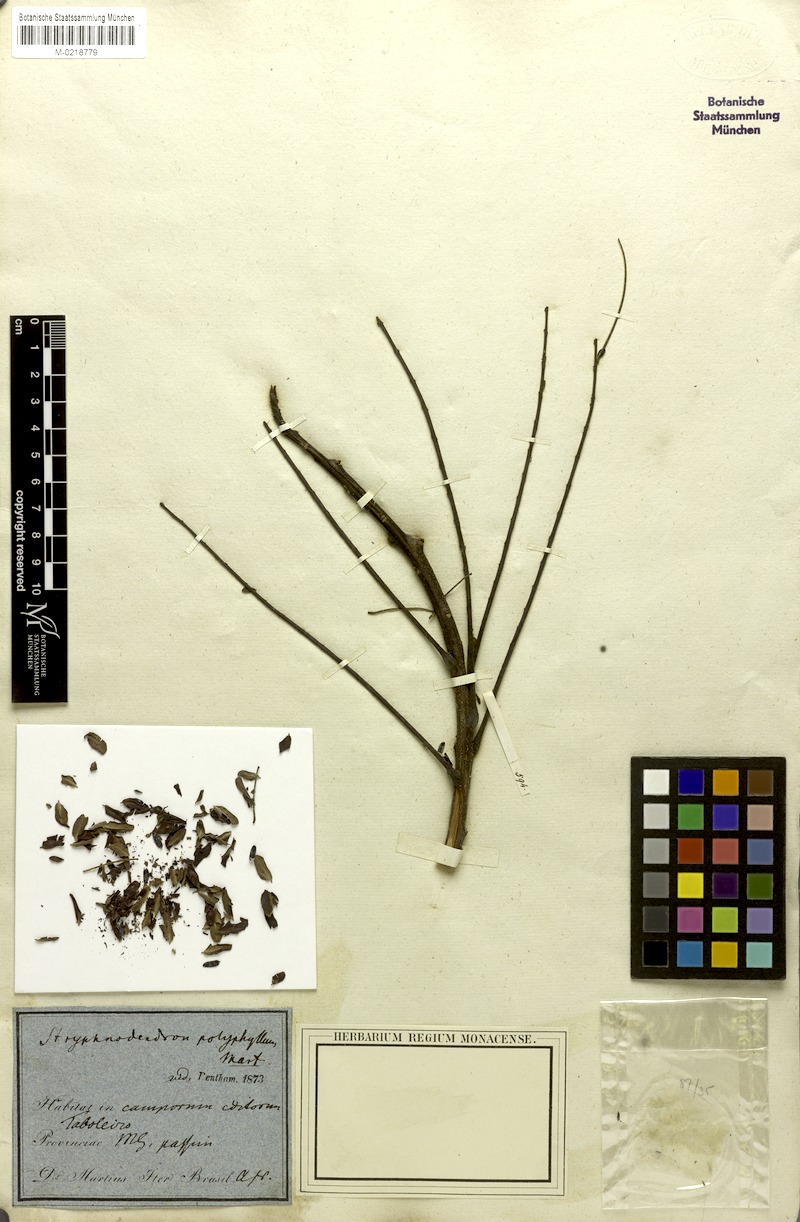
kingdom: Plantae
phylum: Tracheophyta
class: Magnoliopsida
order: Fabales
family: Fabaceae
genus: Stryphnodendron
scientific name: Stryphnodendron polyphyllum
